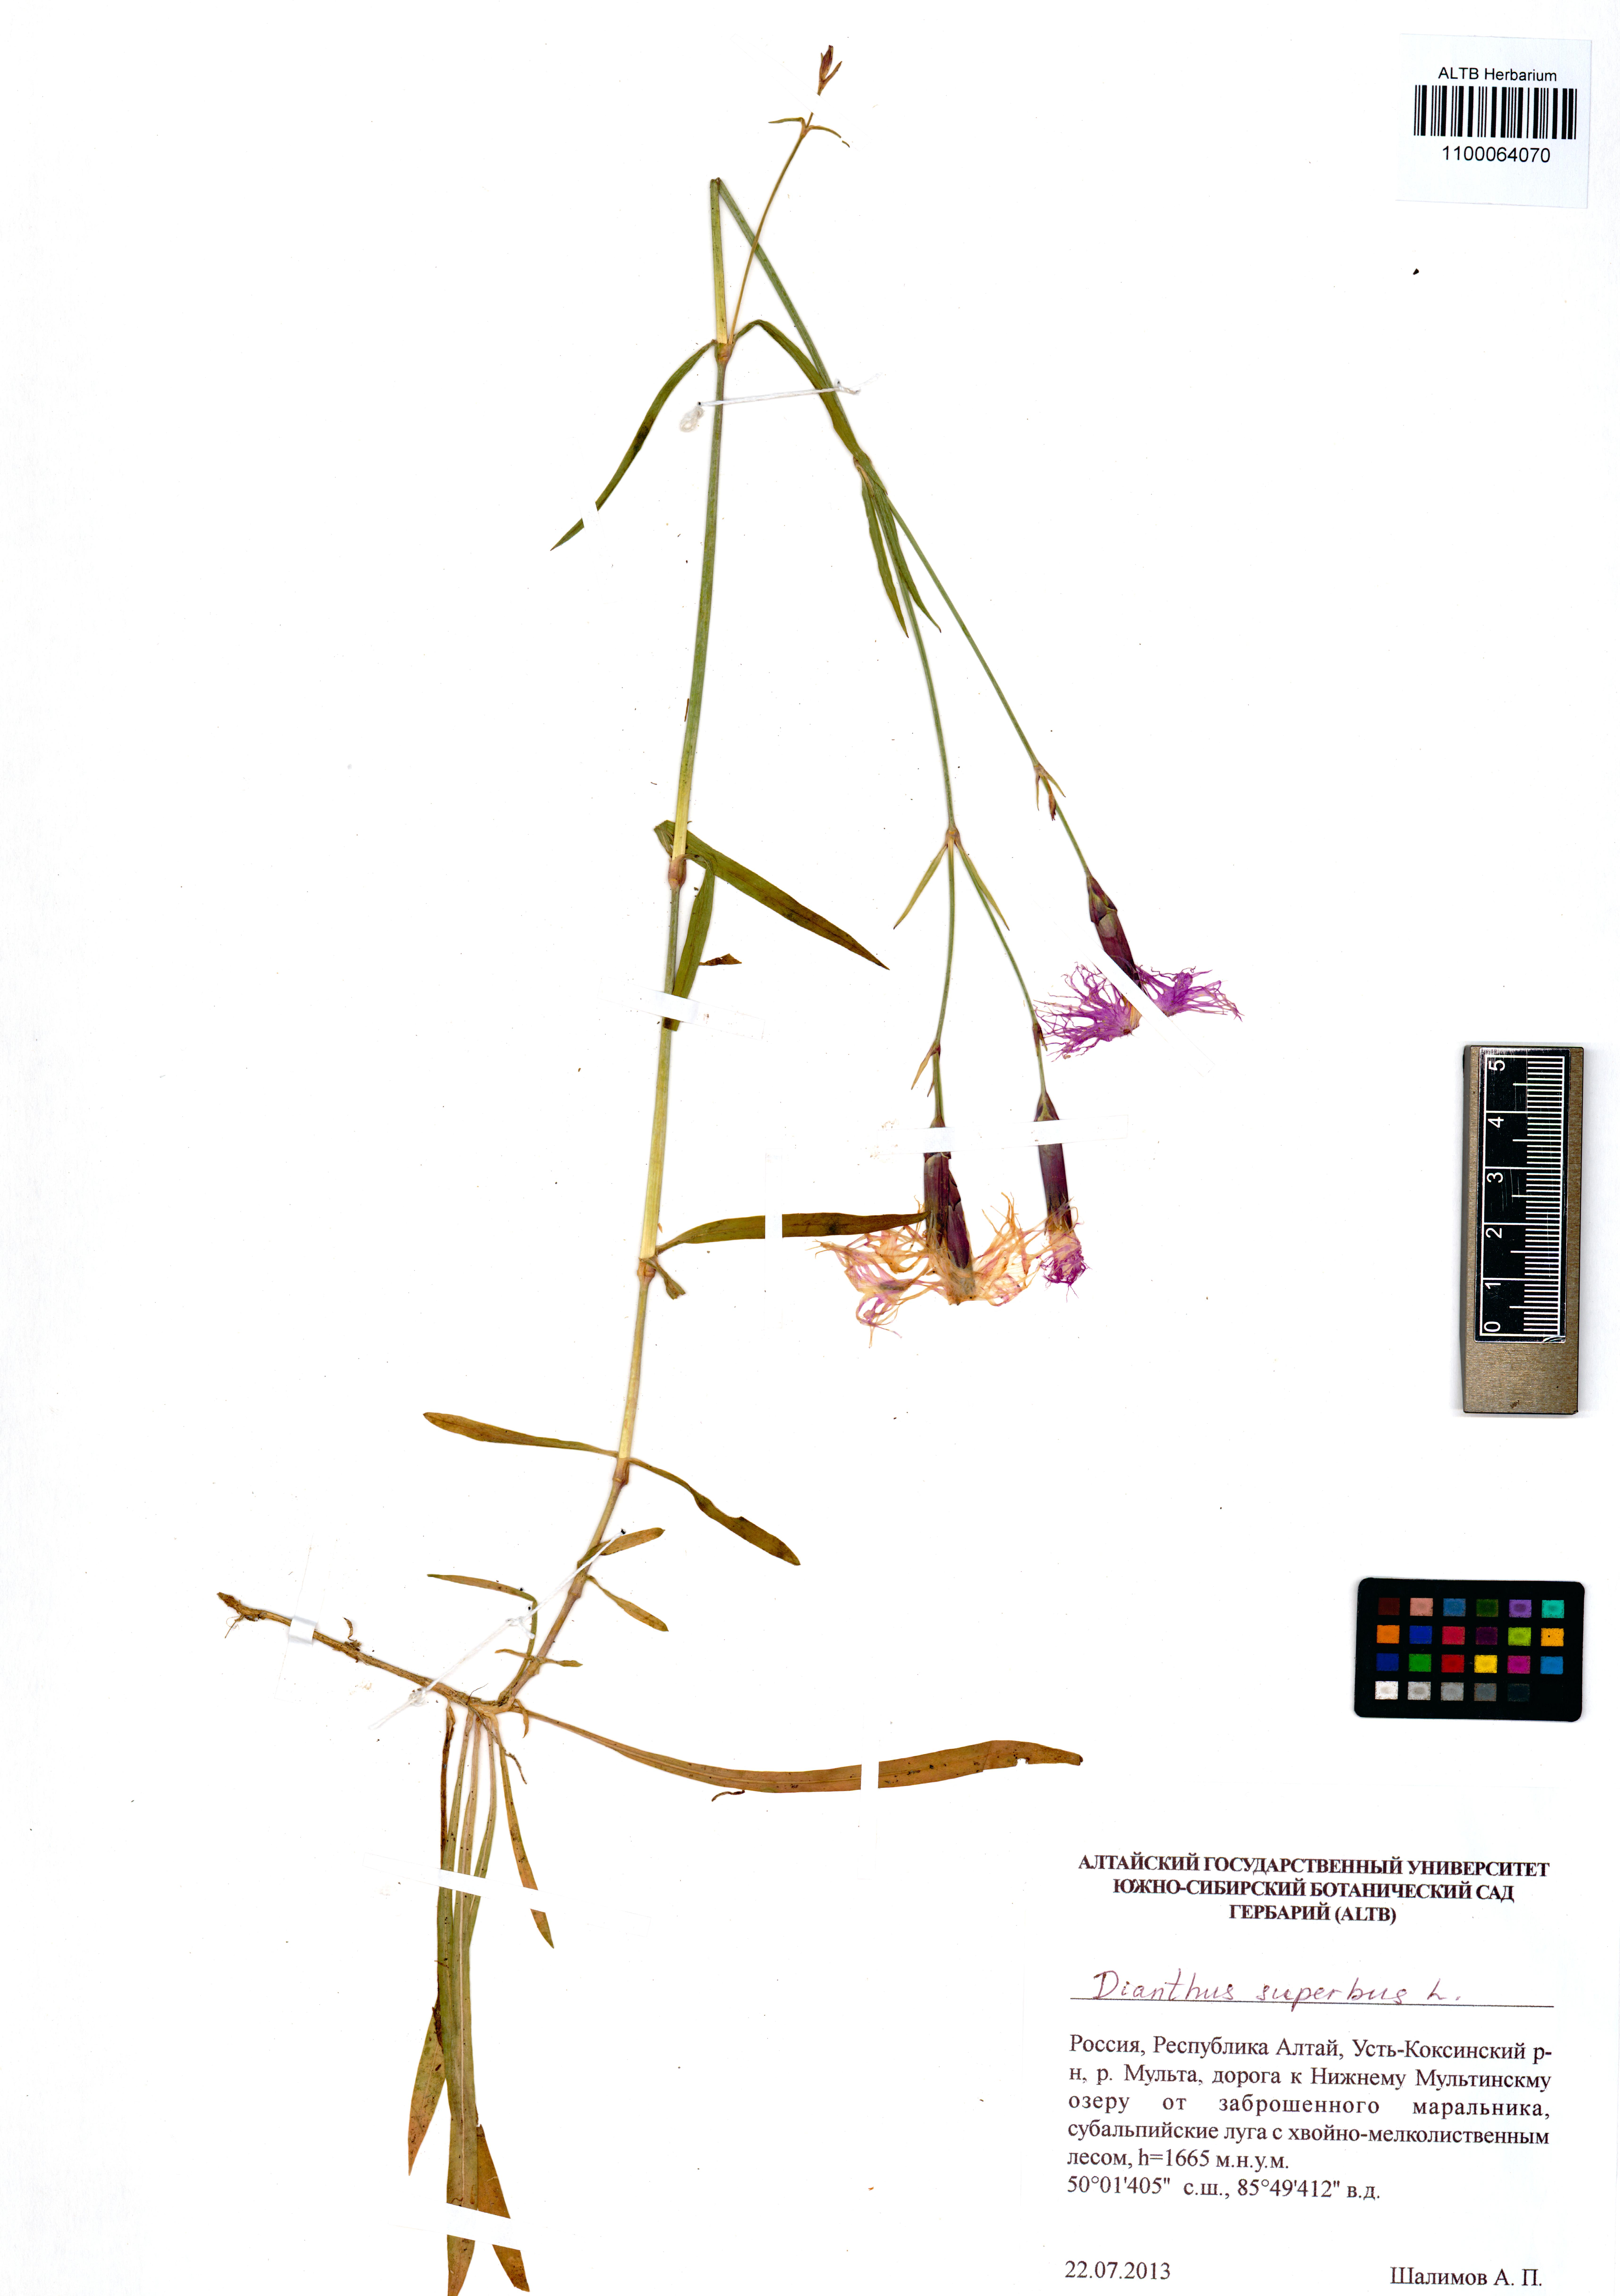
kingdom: Plantae
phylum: Tracheophyta
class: Magnoliopsida
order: Caryophyllales
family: Caryophyllaceae
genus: Dianthus
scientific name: Dianthus superbus
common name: Fringed pink
